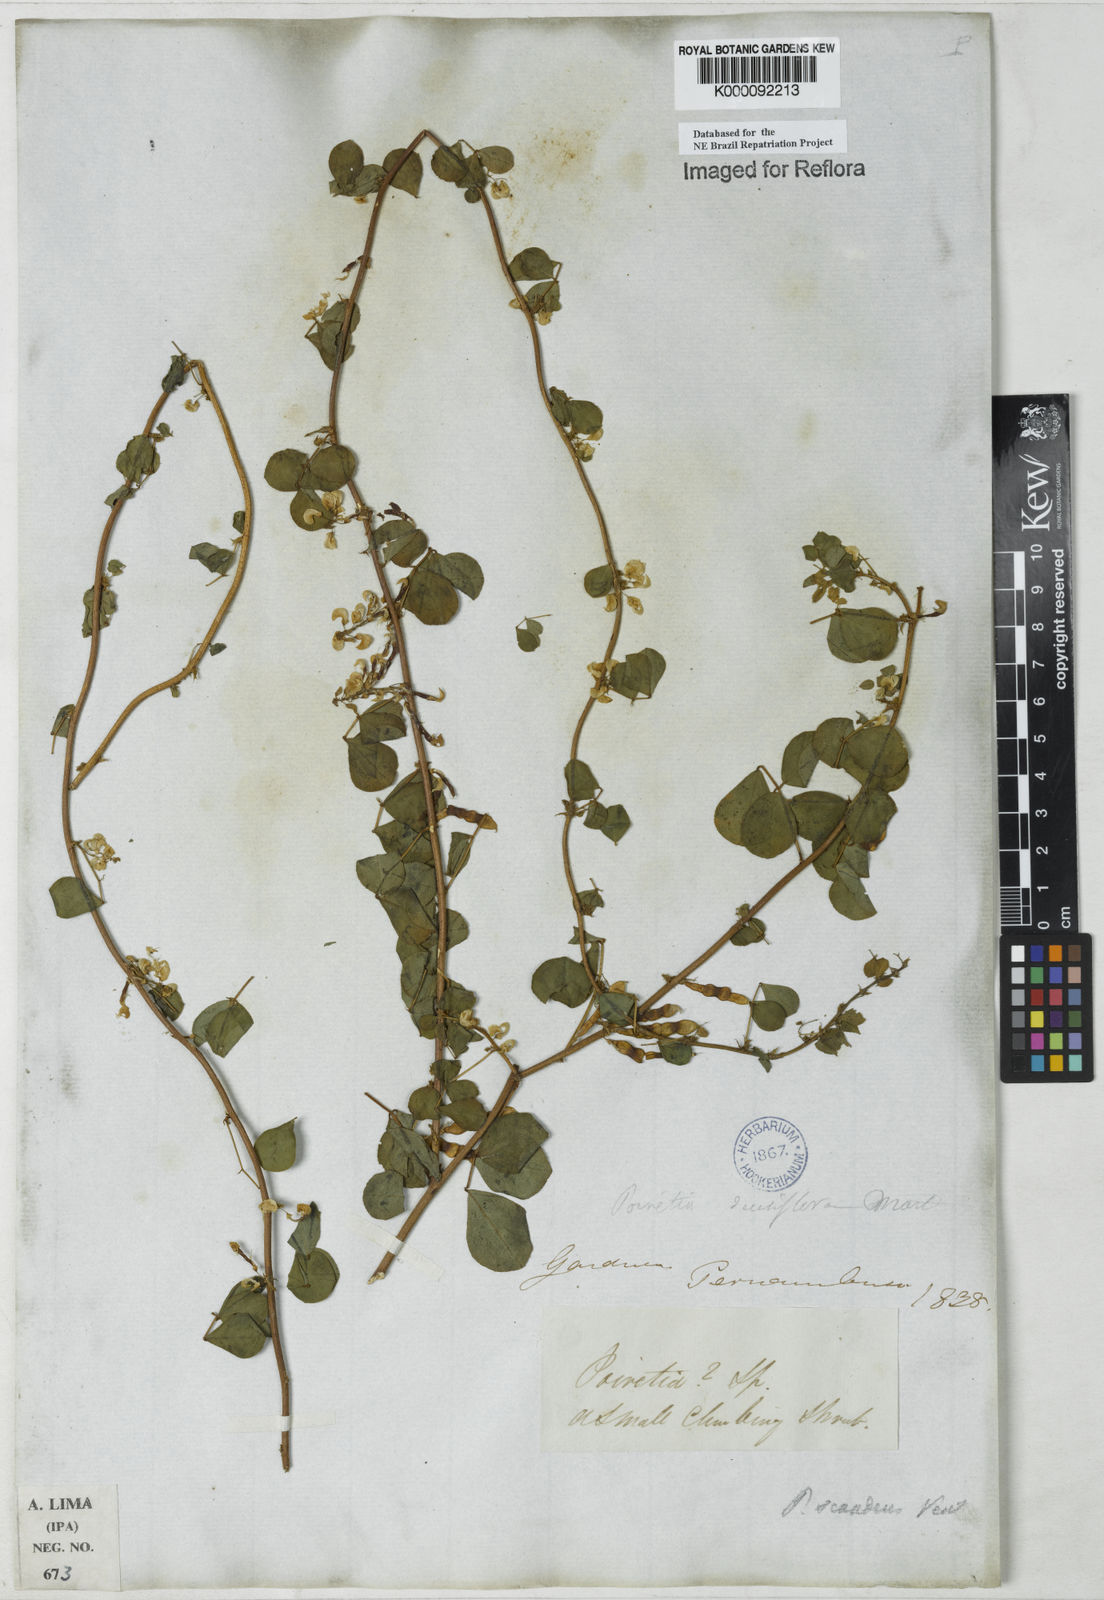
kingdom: Plantae
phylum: Tracheophyta
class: Magnoliopsida
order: Fabales
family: Fabaceae
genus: Poiretia
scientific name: Poiretia punctata
